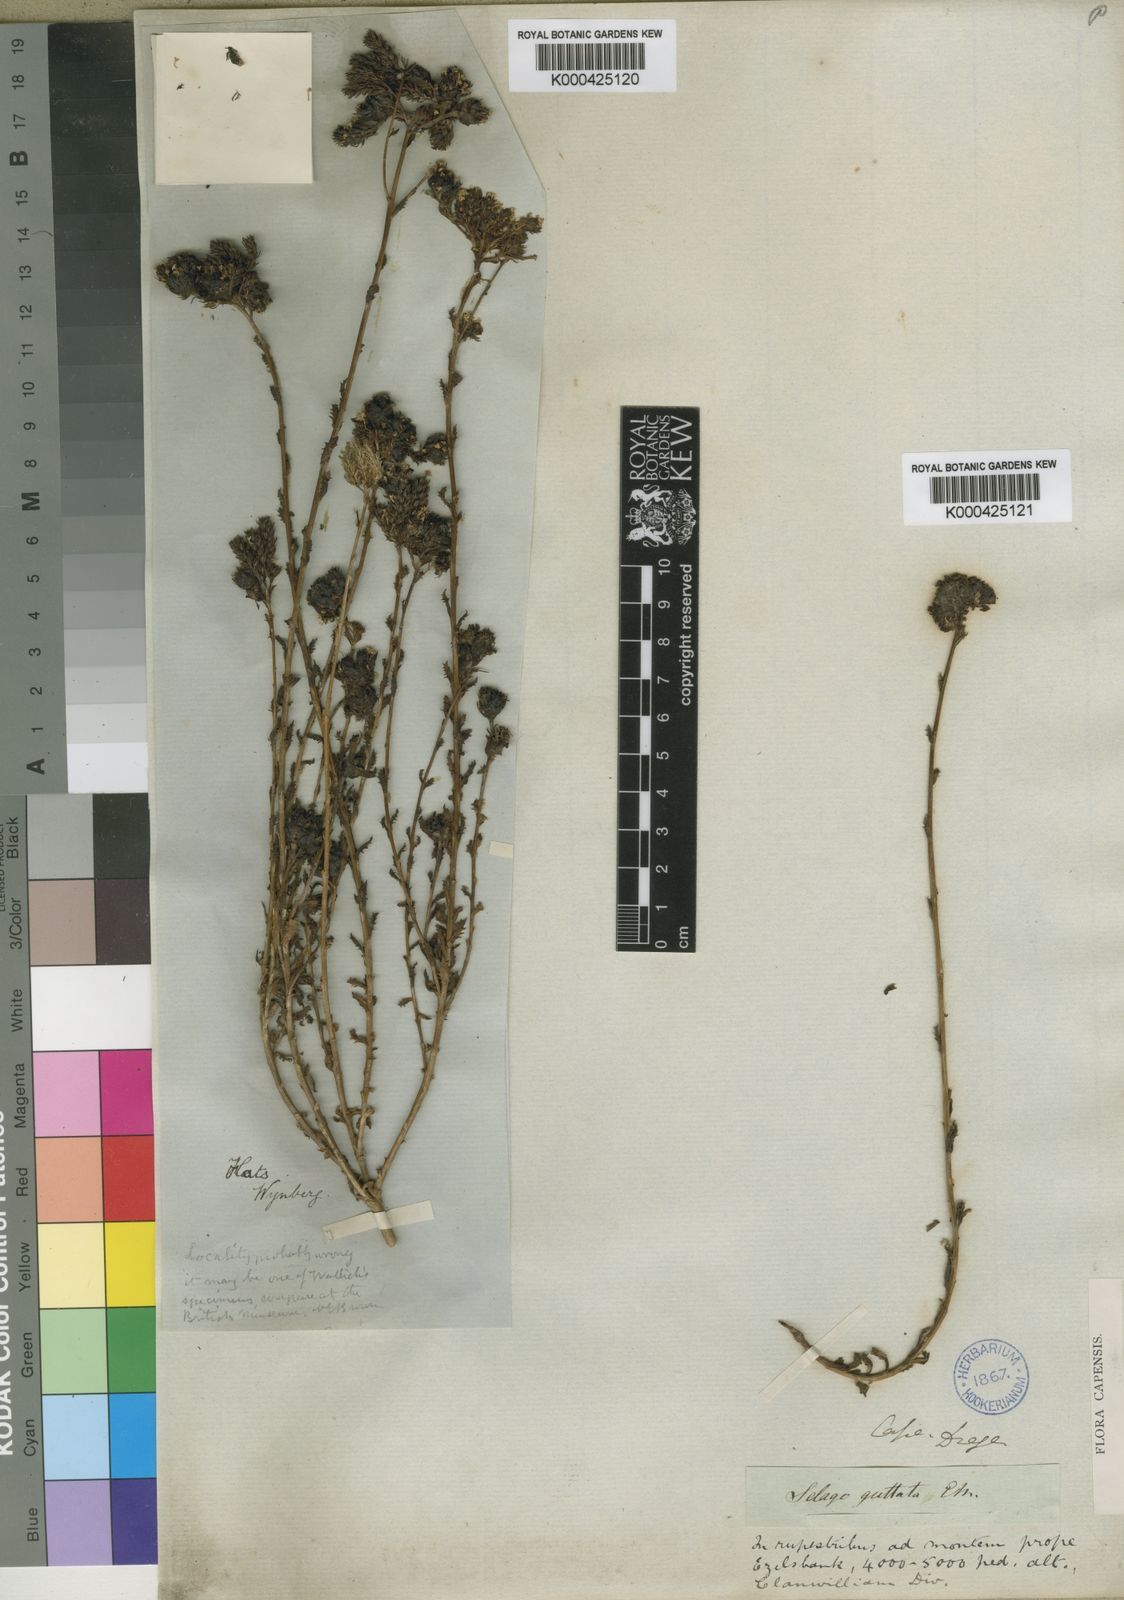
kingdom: Plantae
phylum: Tracheophyta
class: Magnoliopsida
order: Lamiales
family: Scrophulariaceae
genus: Pseudoselago
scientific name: Pseudoselago guttata
